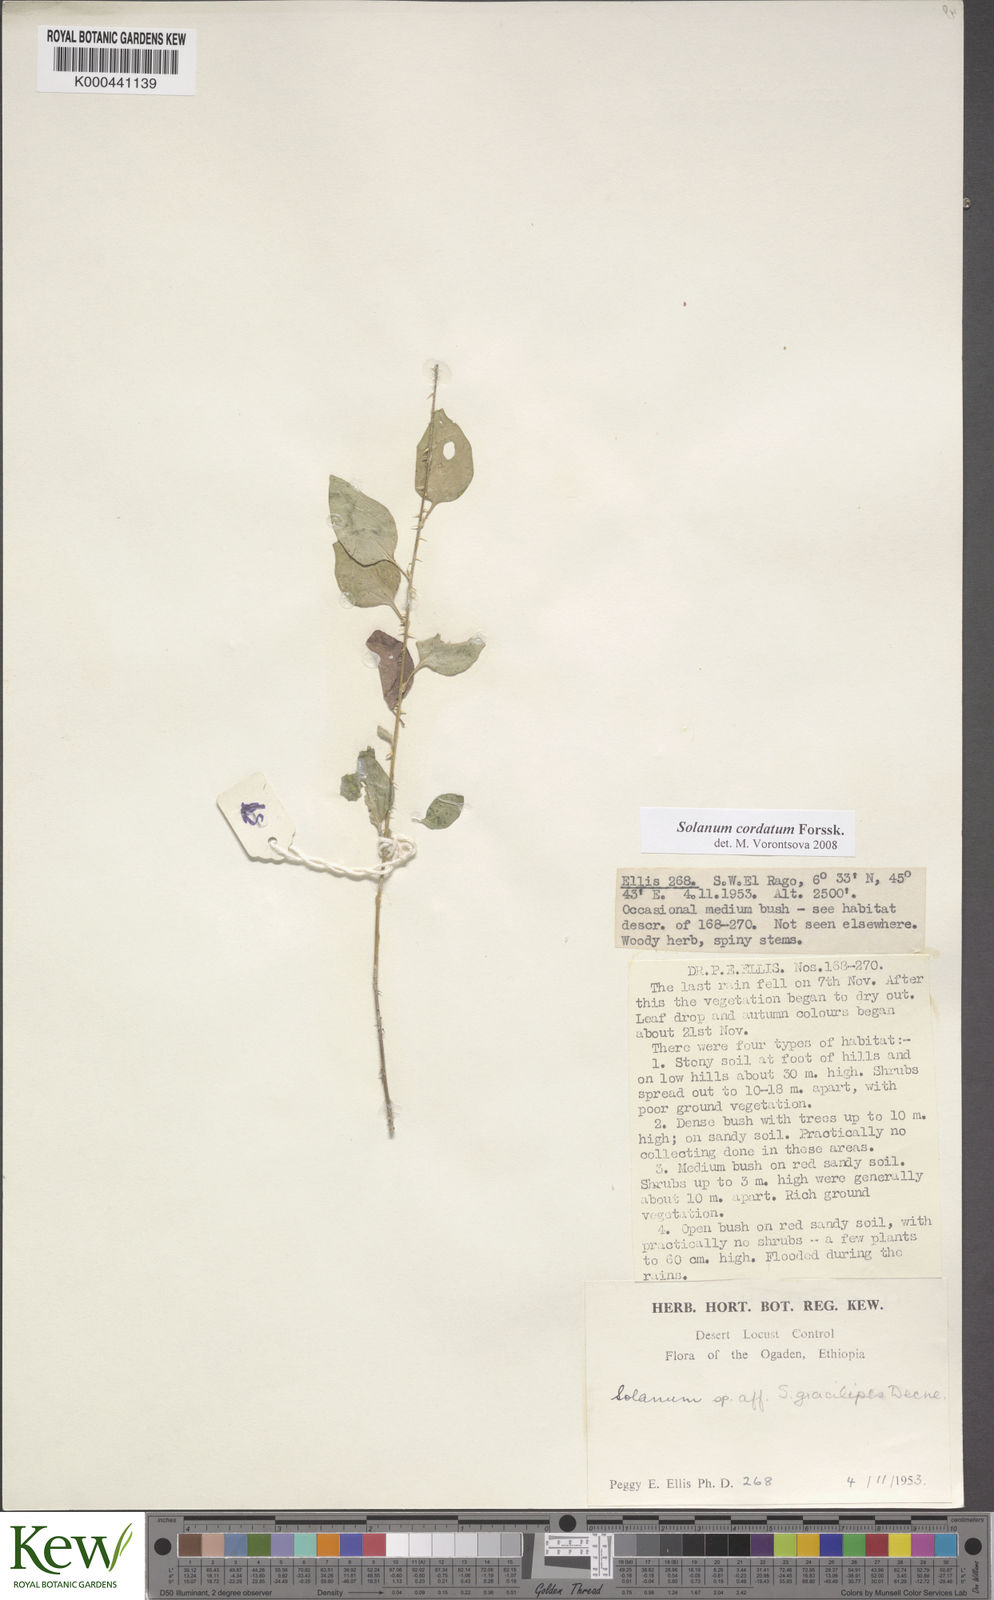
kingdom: Plantae
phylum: Tracheophyta
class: Magnoliopsida
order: Solanales
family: Solanaceae
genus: Solanum
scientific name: Solanum cordatum
